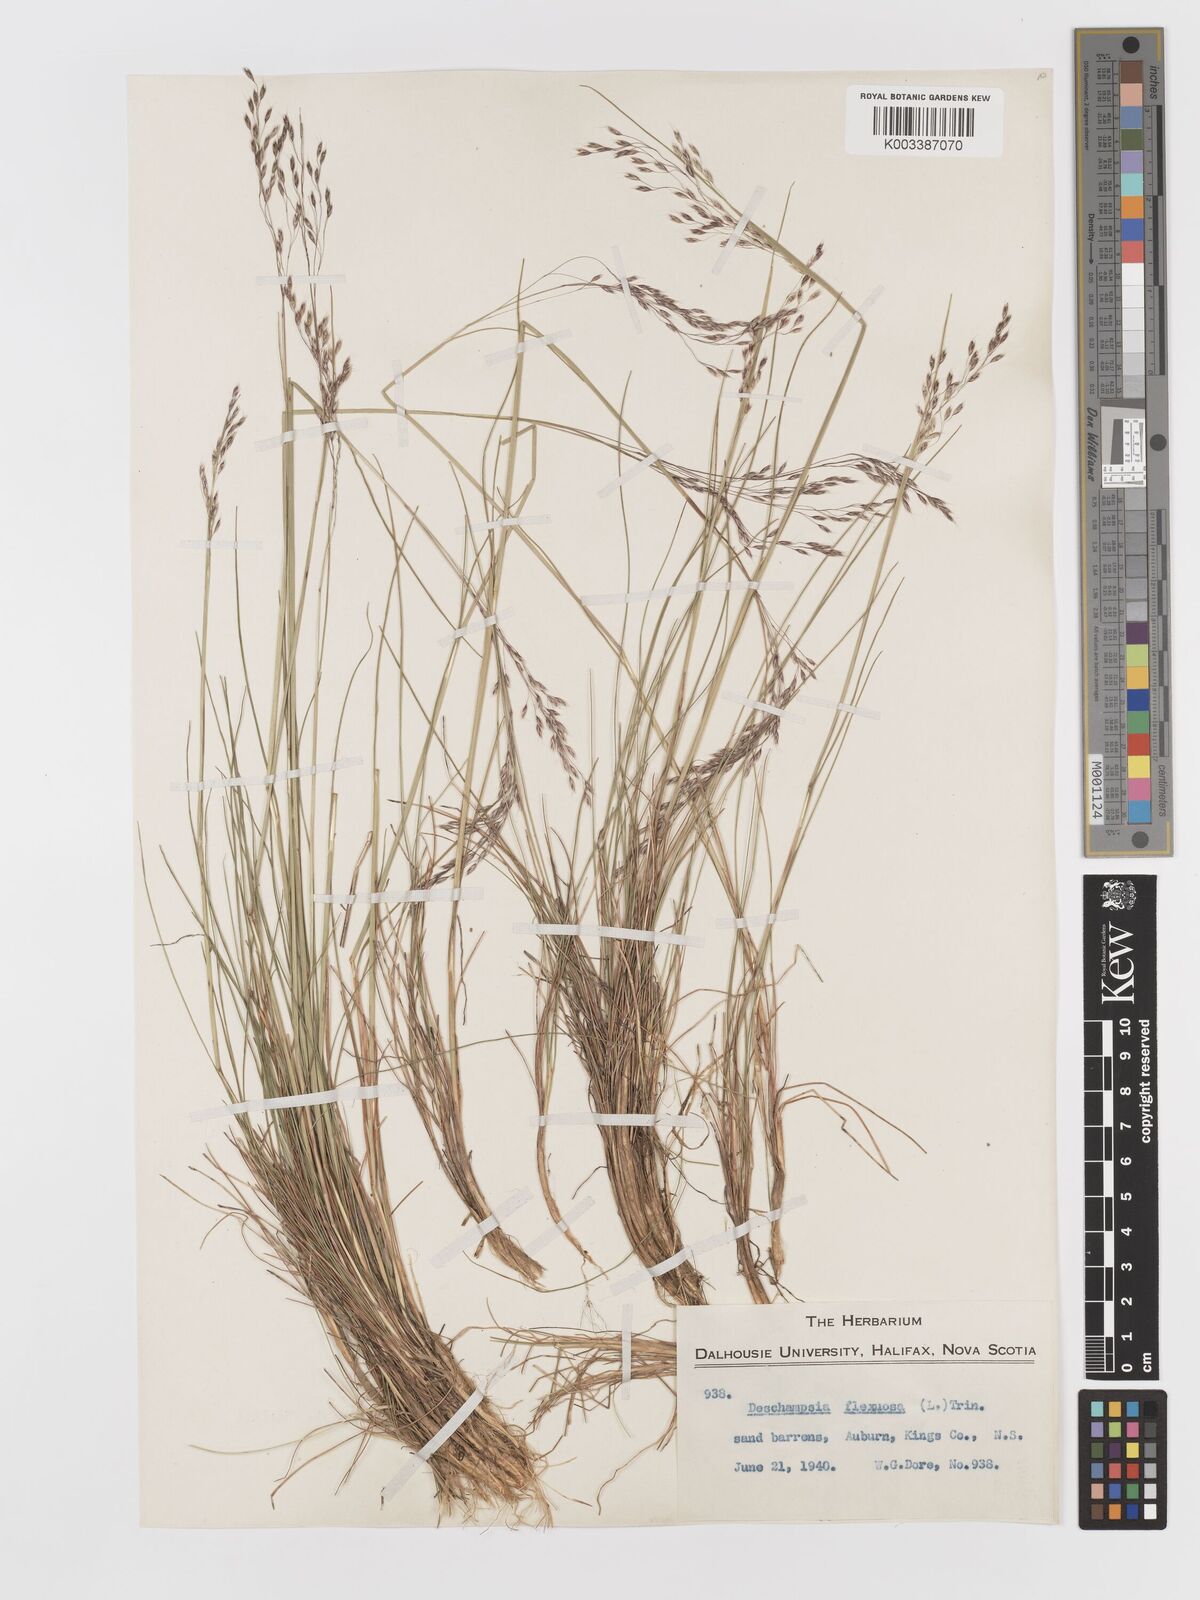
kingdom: Plantae
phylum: Tracheophyta
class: Liliopsida
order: Poales
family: Poaceae
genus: Avenella
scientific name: Avenella flexuosa
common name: Wavy hairgrass
